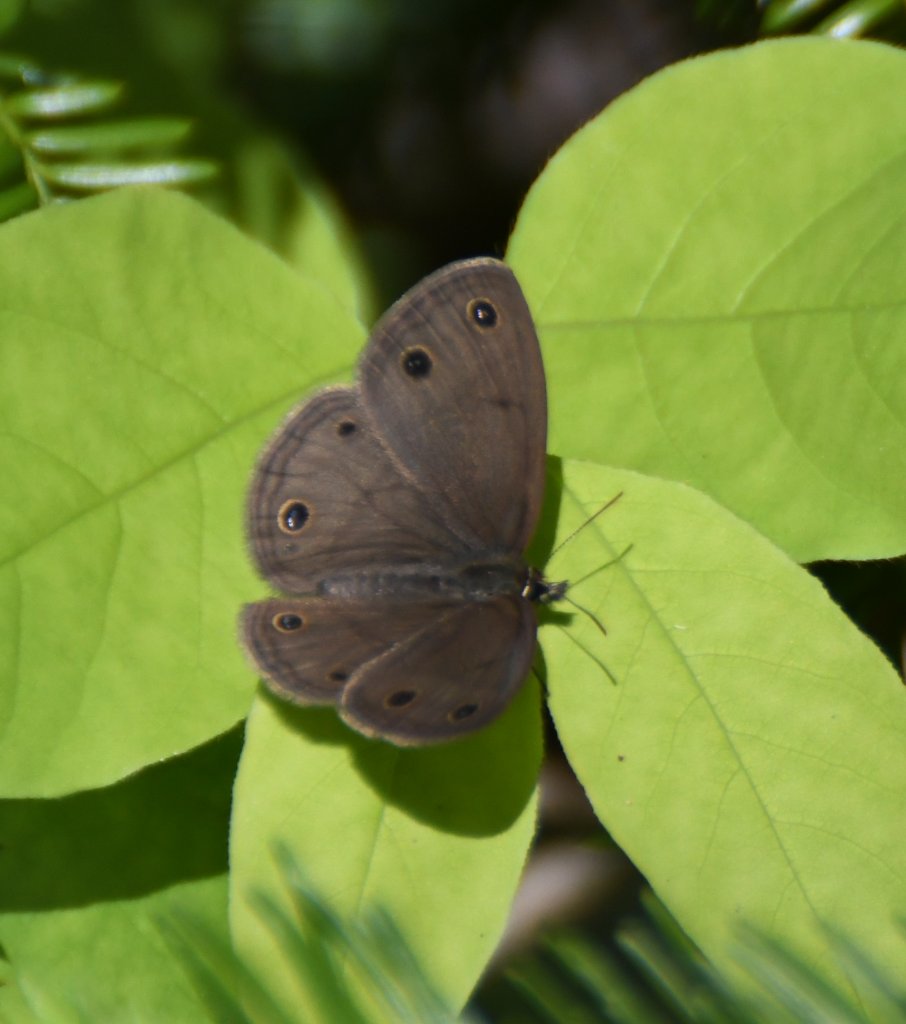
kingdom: Animalia
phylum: Arthropoda
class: Insecta
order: Lepidoptera
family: Nymphalidae
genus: Euptychia
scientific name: Euptychia cymela
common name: Little Wood Satyr
